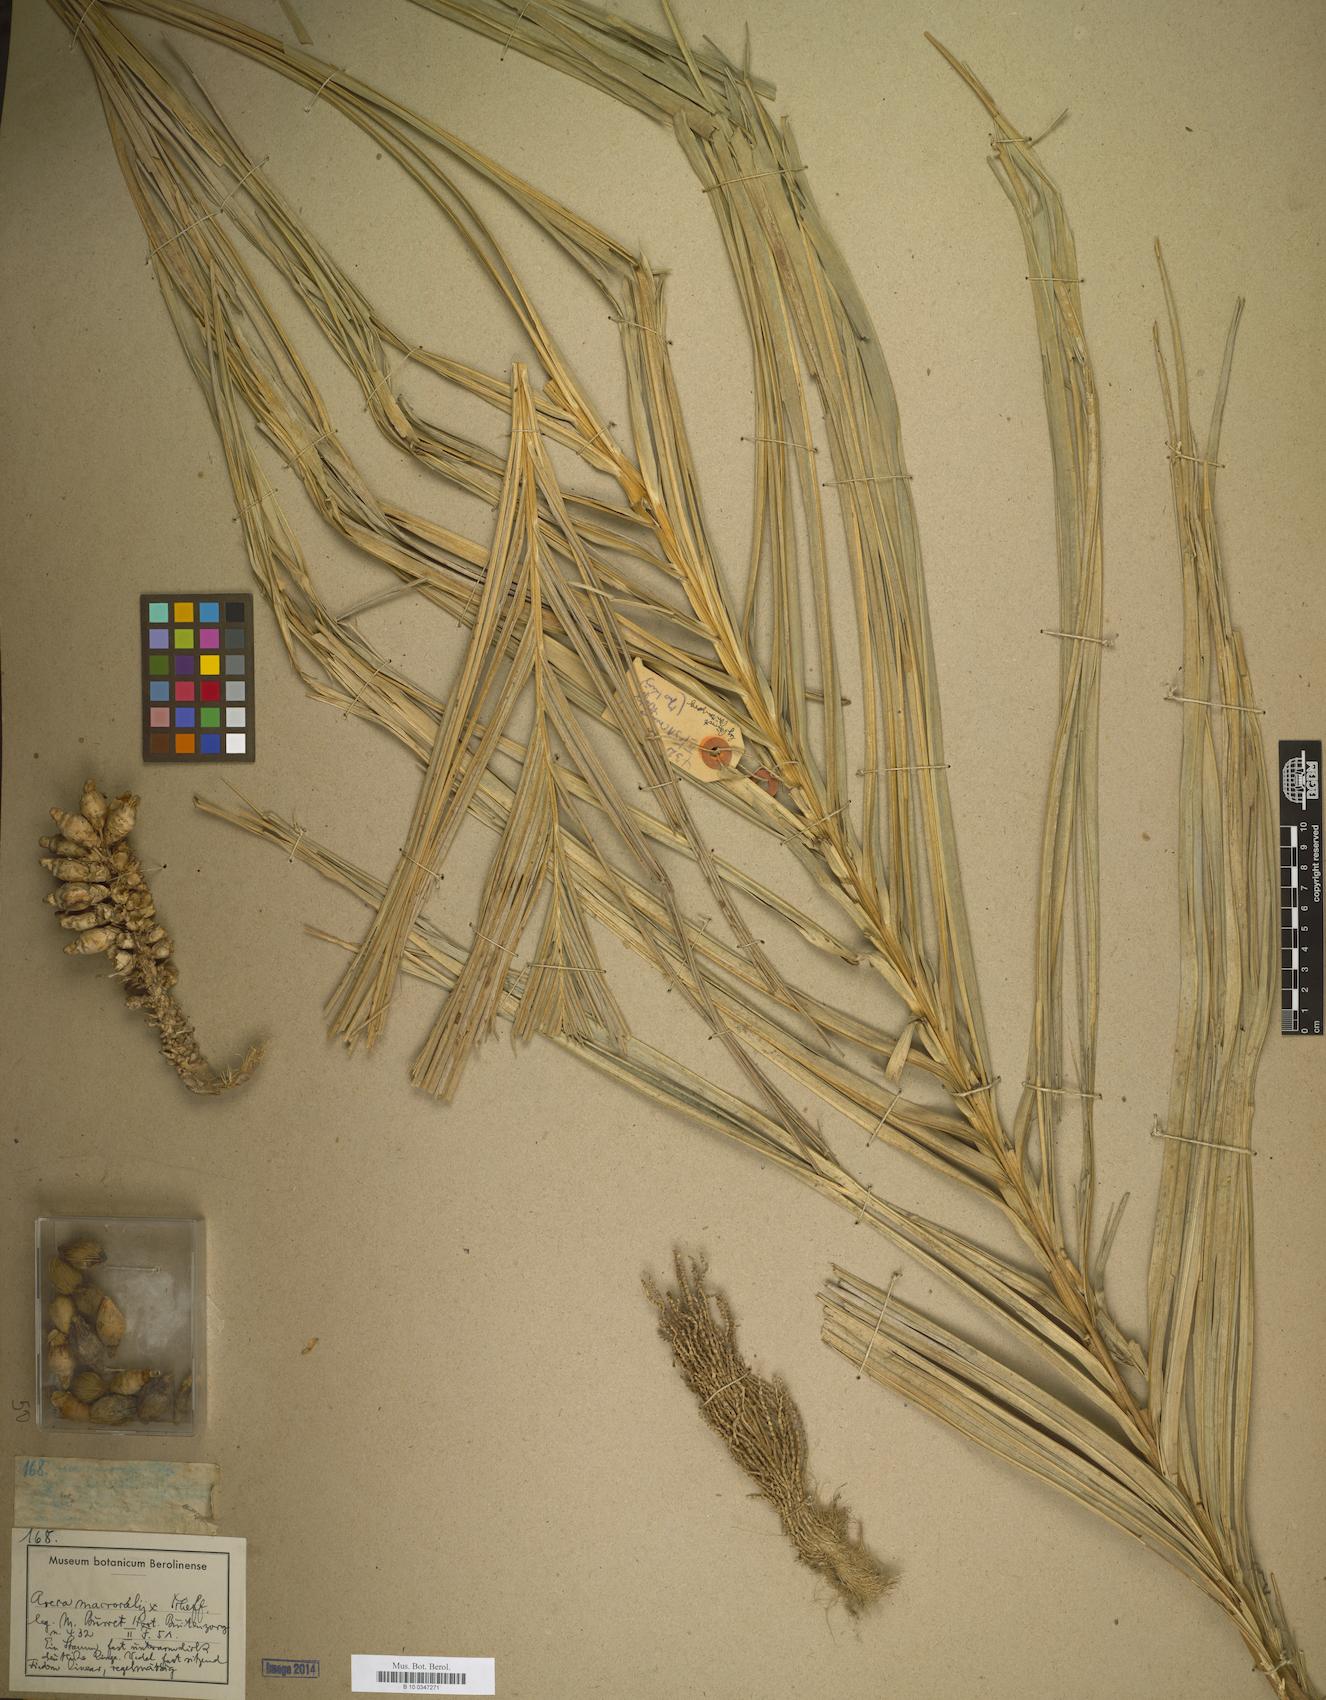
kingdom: Plantae
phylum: Tracheophyta
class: Liliopsida
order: Arecales
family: Arecaceae
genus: Areca
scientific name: Areca macrocalyx
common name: Highland betel-nut palm
